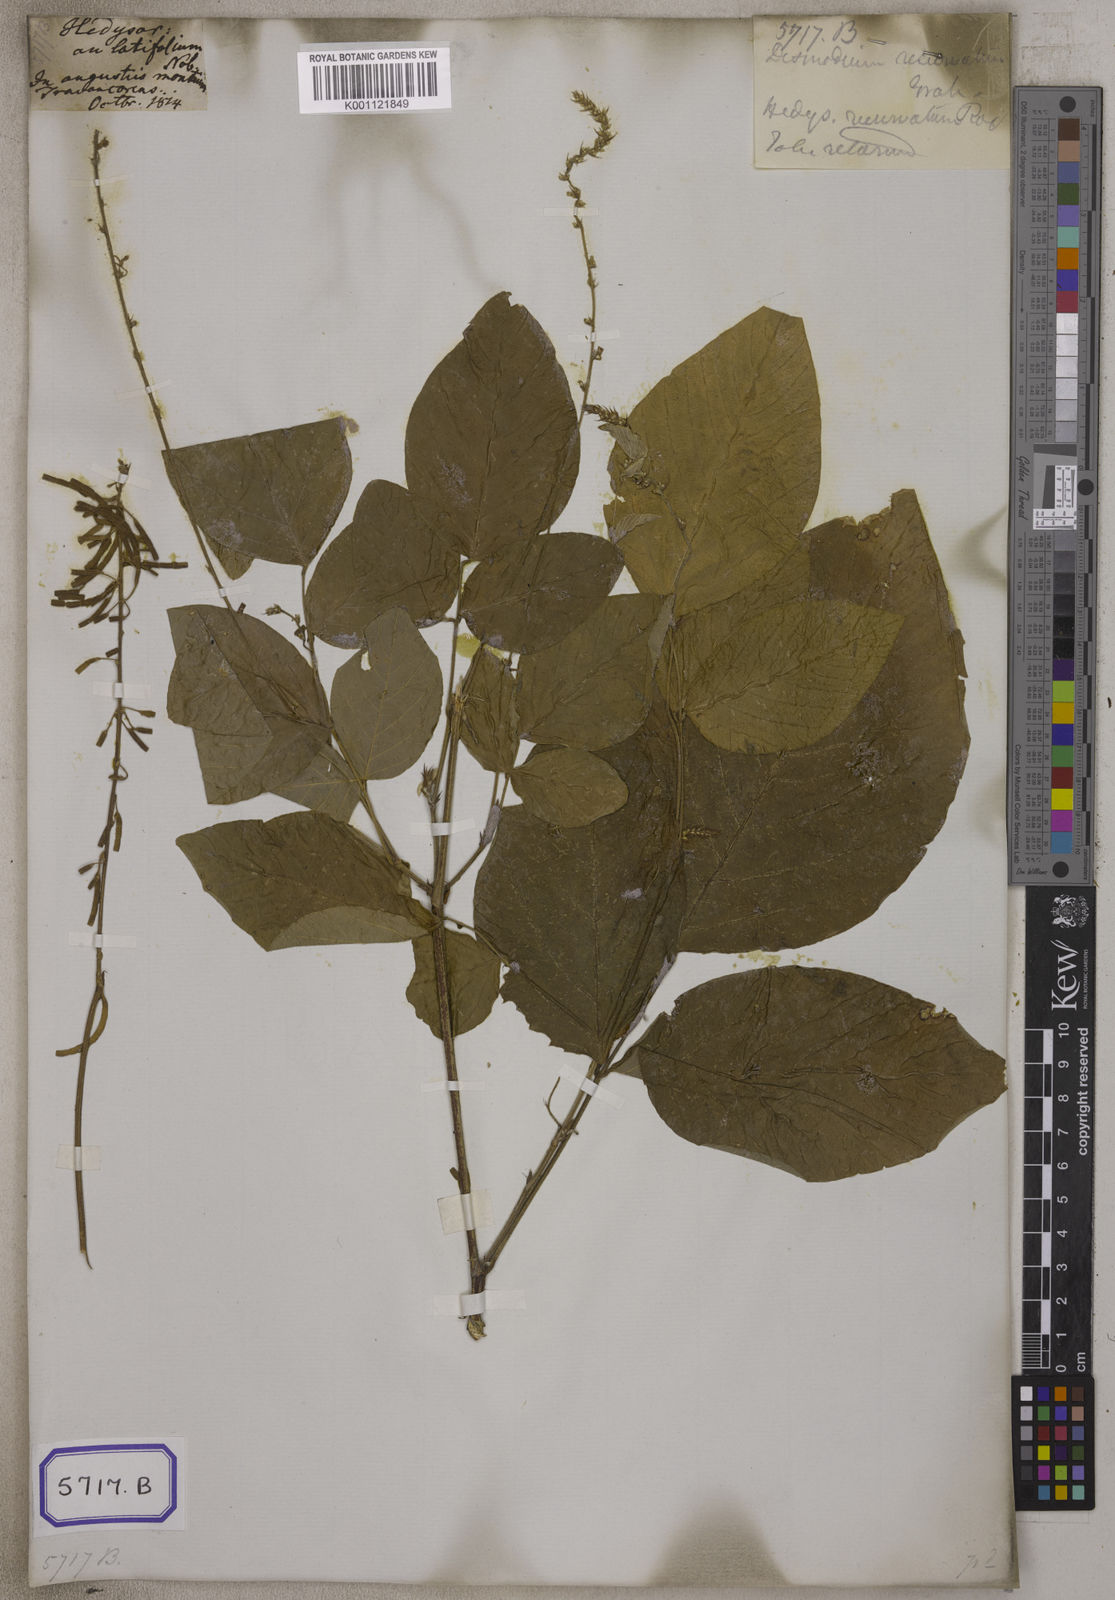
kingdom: Plantae
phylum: Tracheophyta
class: Magnoliopsida
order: Fabales
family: Fabaceae
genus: Sohmaea
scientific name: Sohmaea laxiflora
